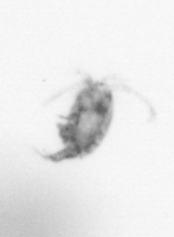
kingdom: Animalia
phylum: Arthropoda
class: Copepoda
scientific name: Copepoda
